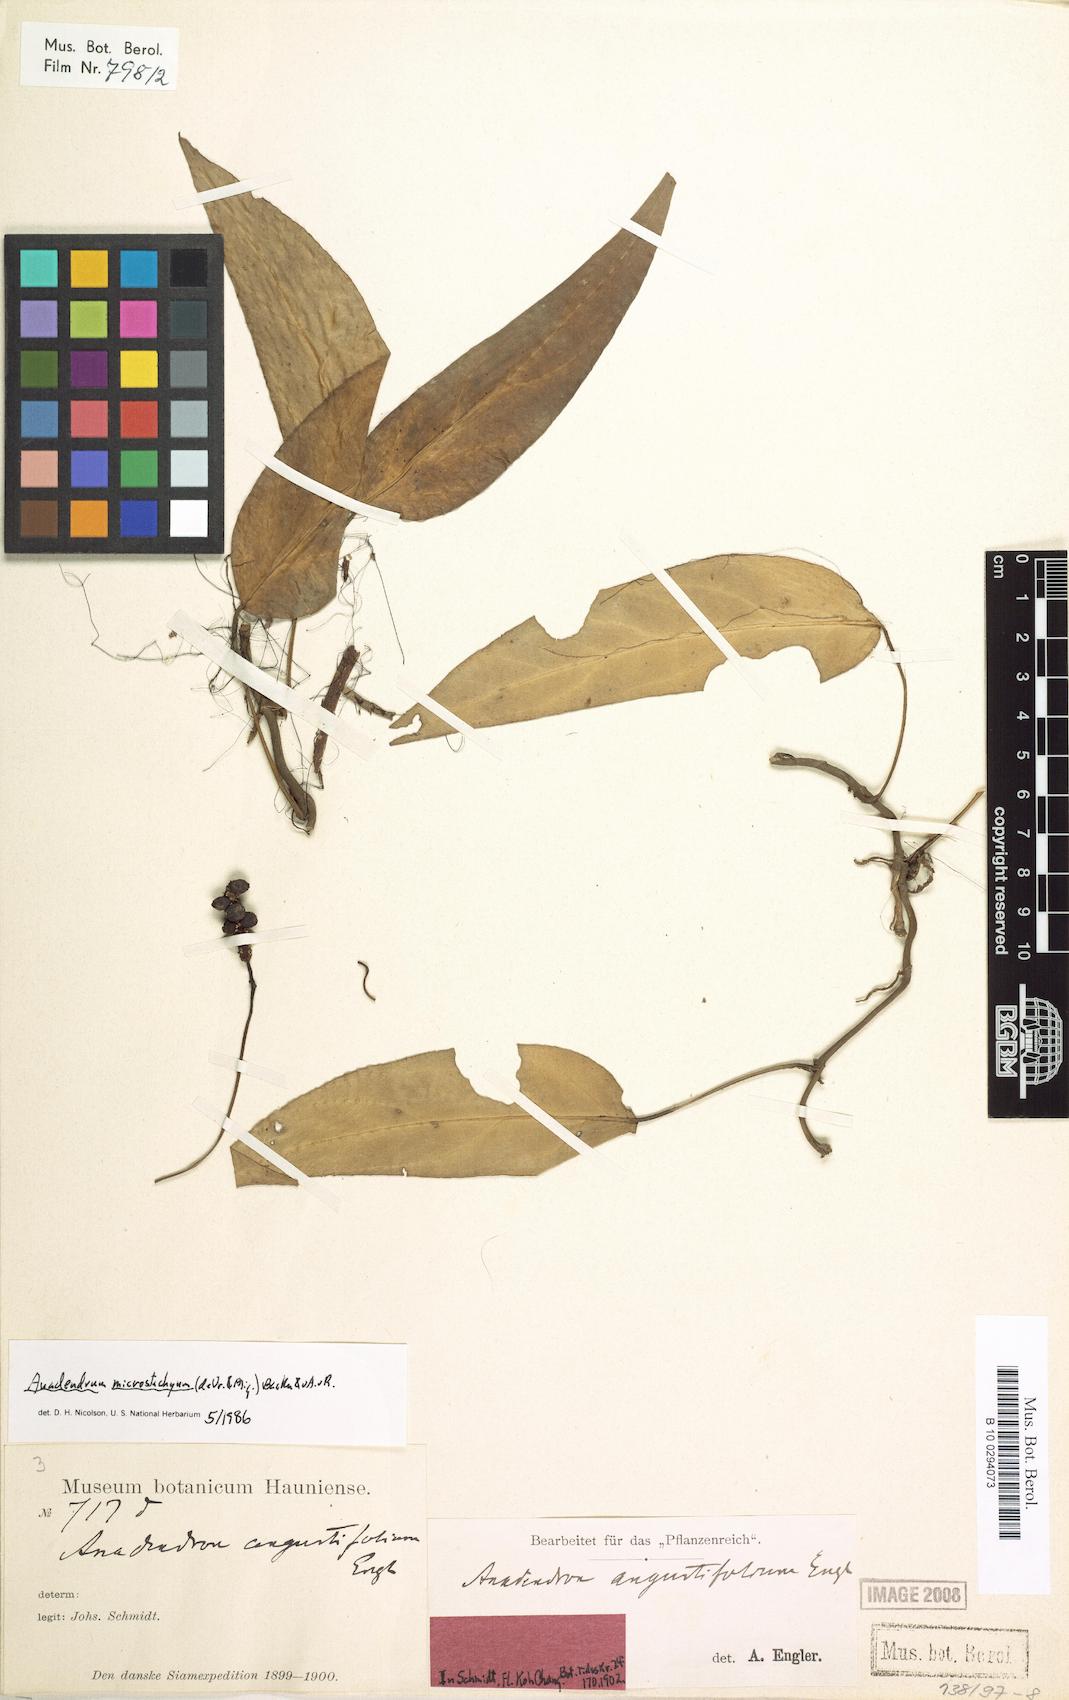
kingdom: Plantae
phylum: Tracheophyta
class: Liliopsida
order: Alismatales
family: Araceae
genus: Anadendrum
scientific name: Anadendrum microstachyum
